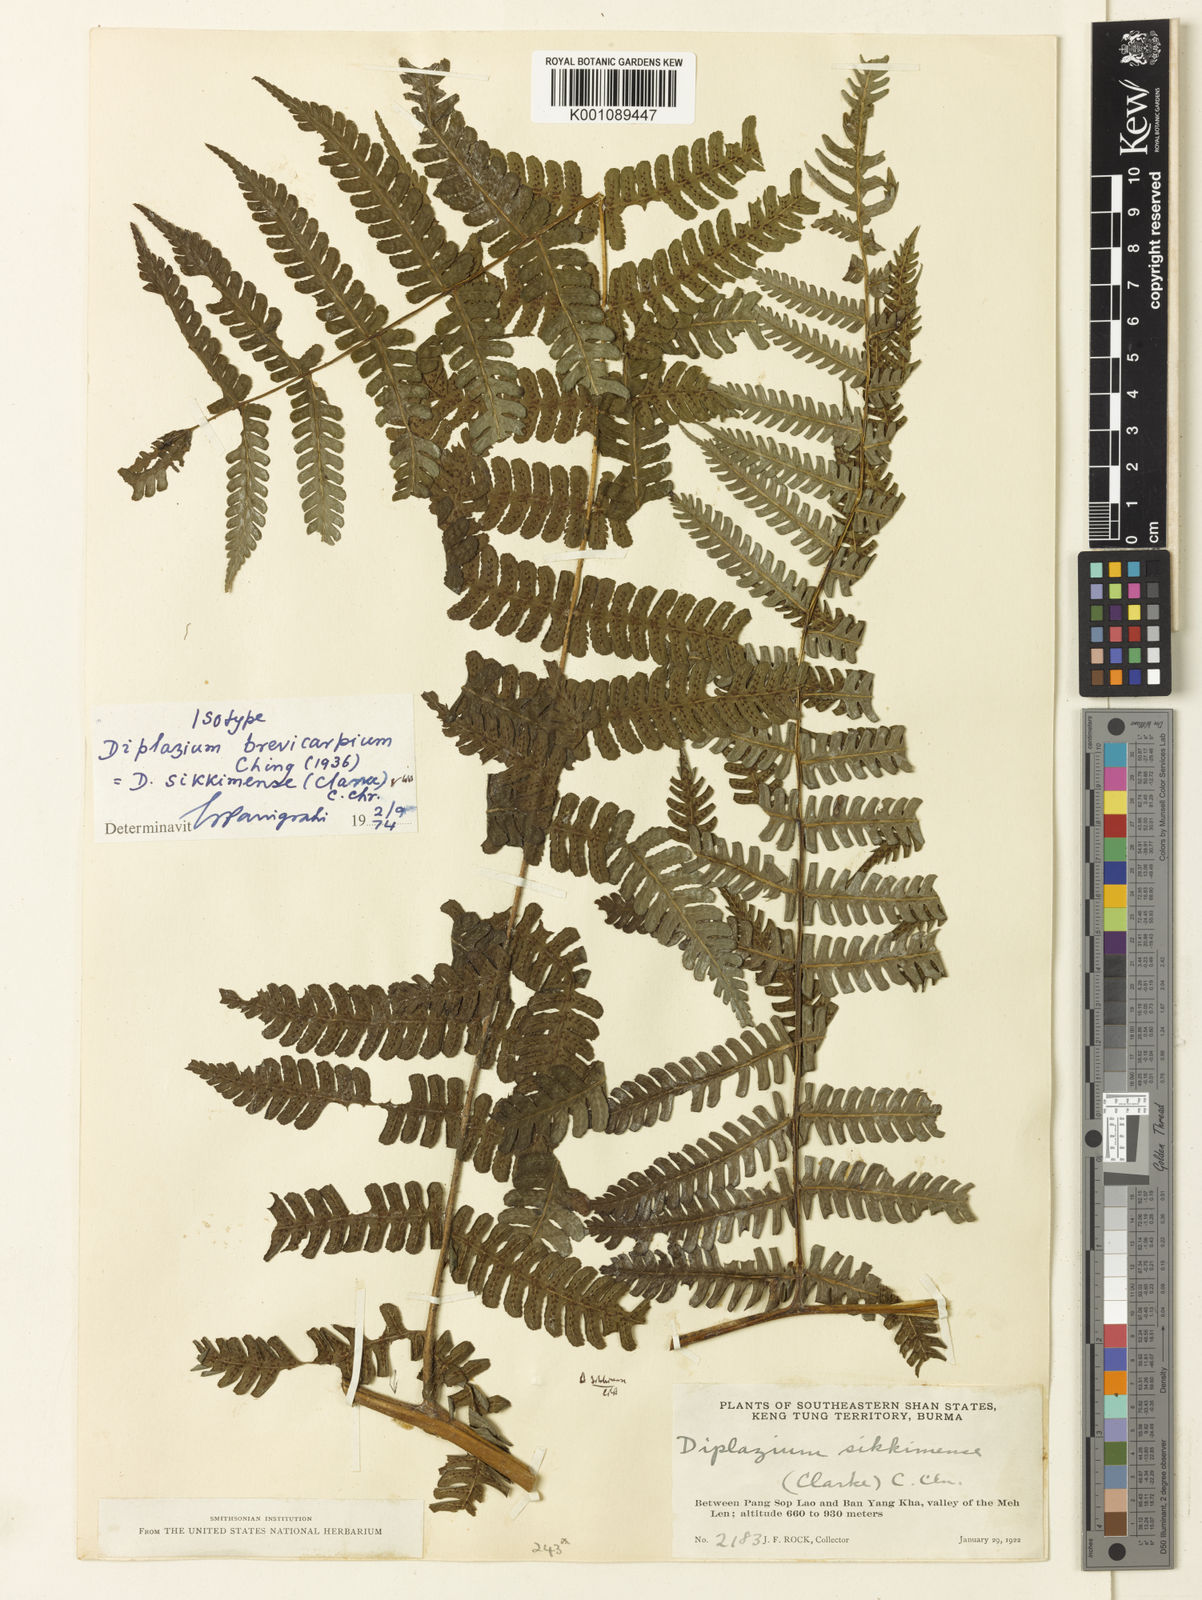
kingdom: Plantae
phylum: Tracheophyta
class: Polypodiopsida
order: Polypodiales
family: Athyriaceae
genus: Diplazium
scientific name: Diplazium sikkimense
